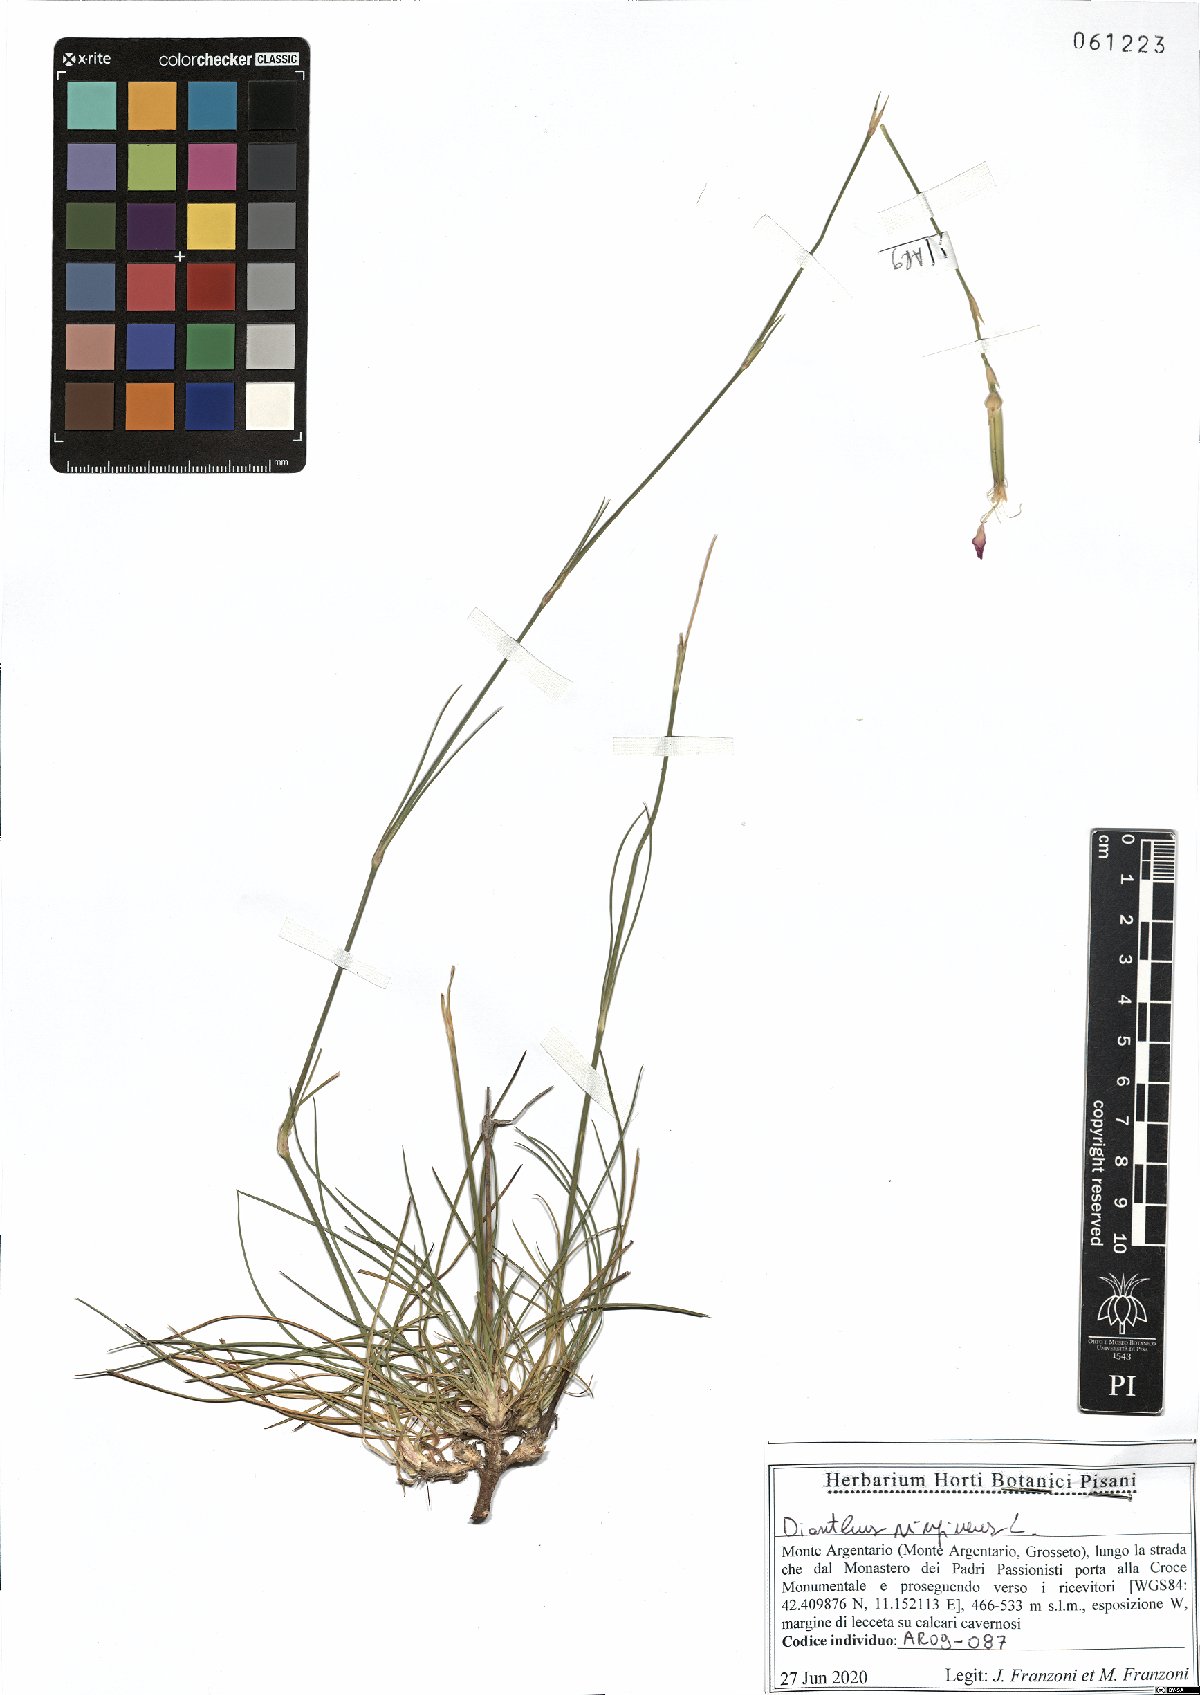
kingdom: Plantae
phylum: Tracheophyta
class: Magnoliopsida
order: Caryophyllales
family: Caryophyllaceae
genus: Dianthus
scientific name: Dianthus virgineus
